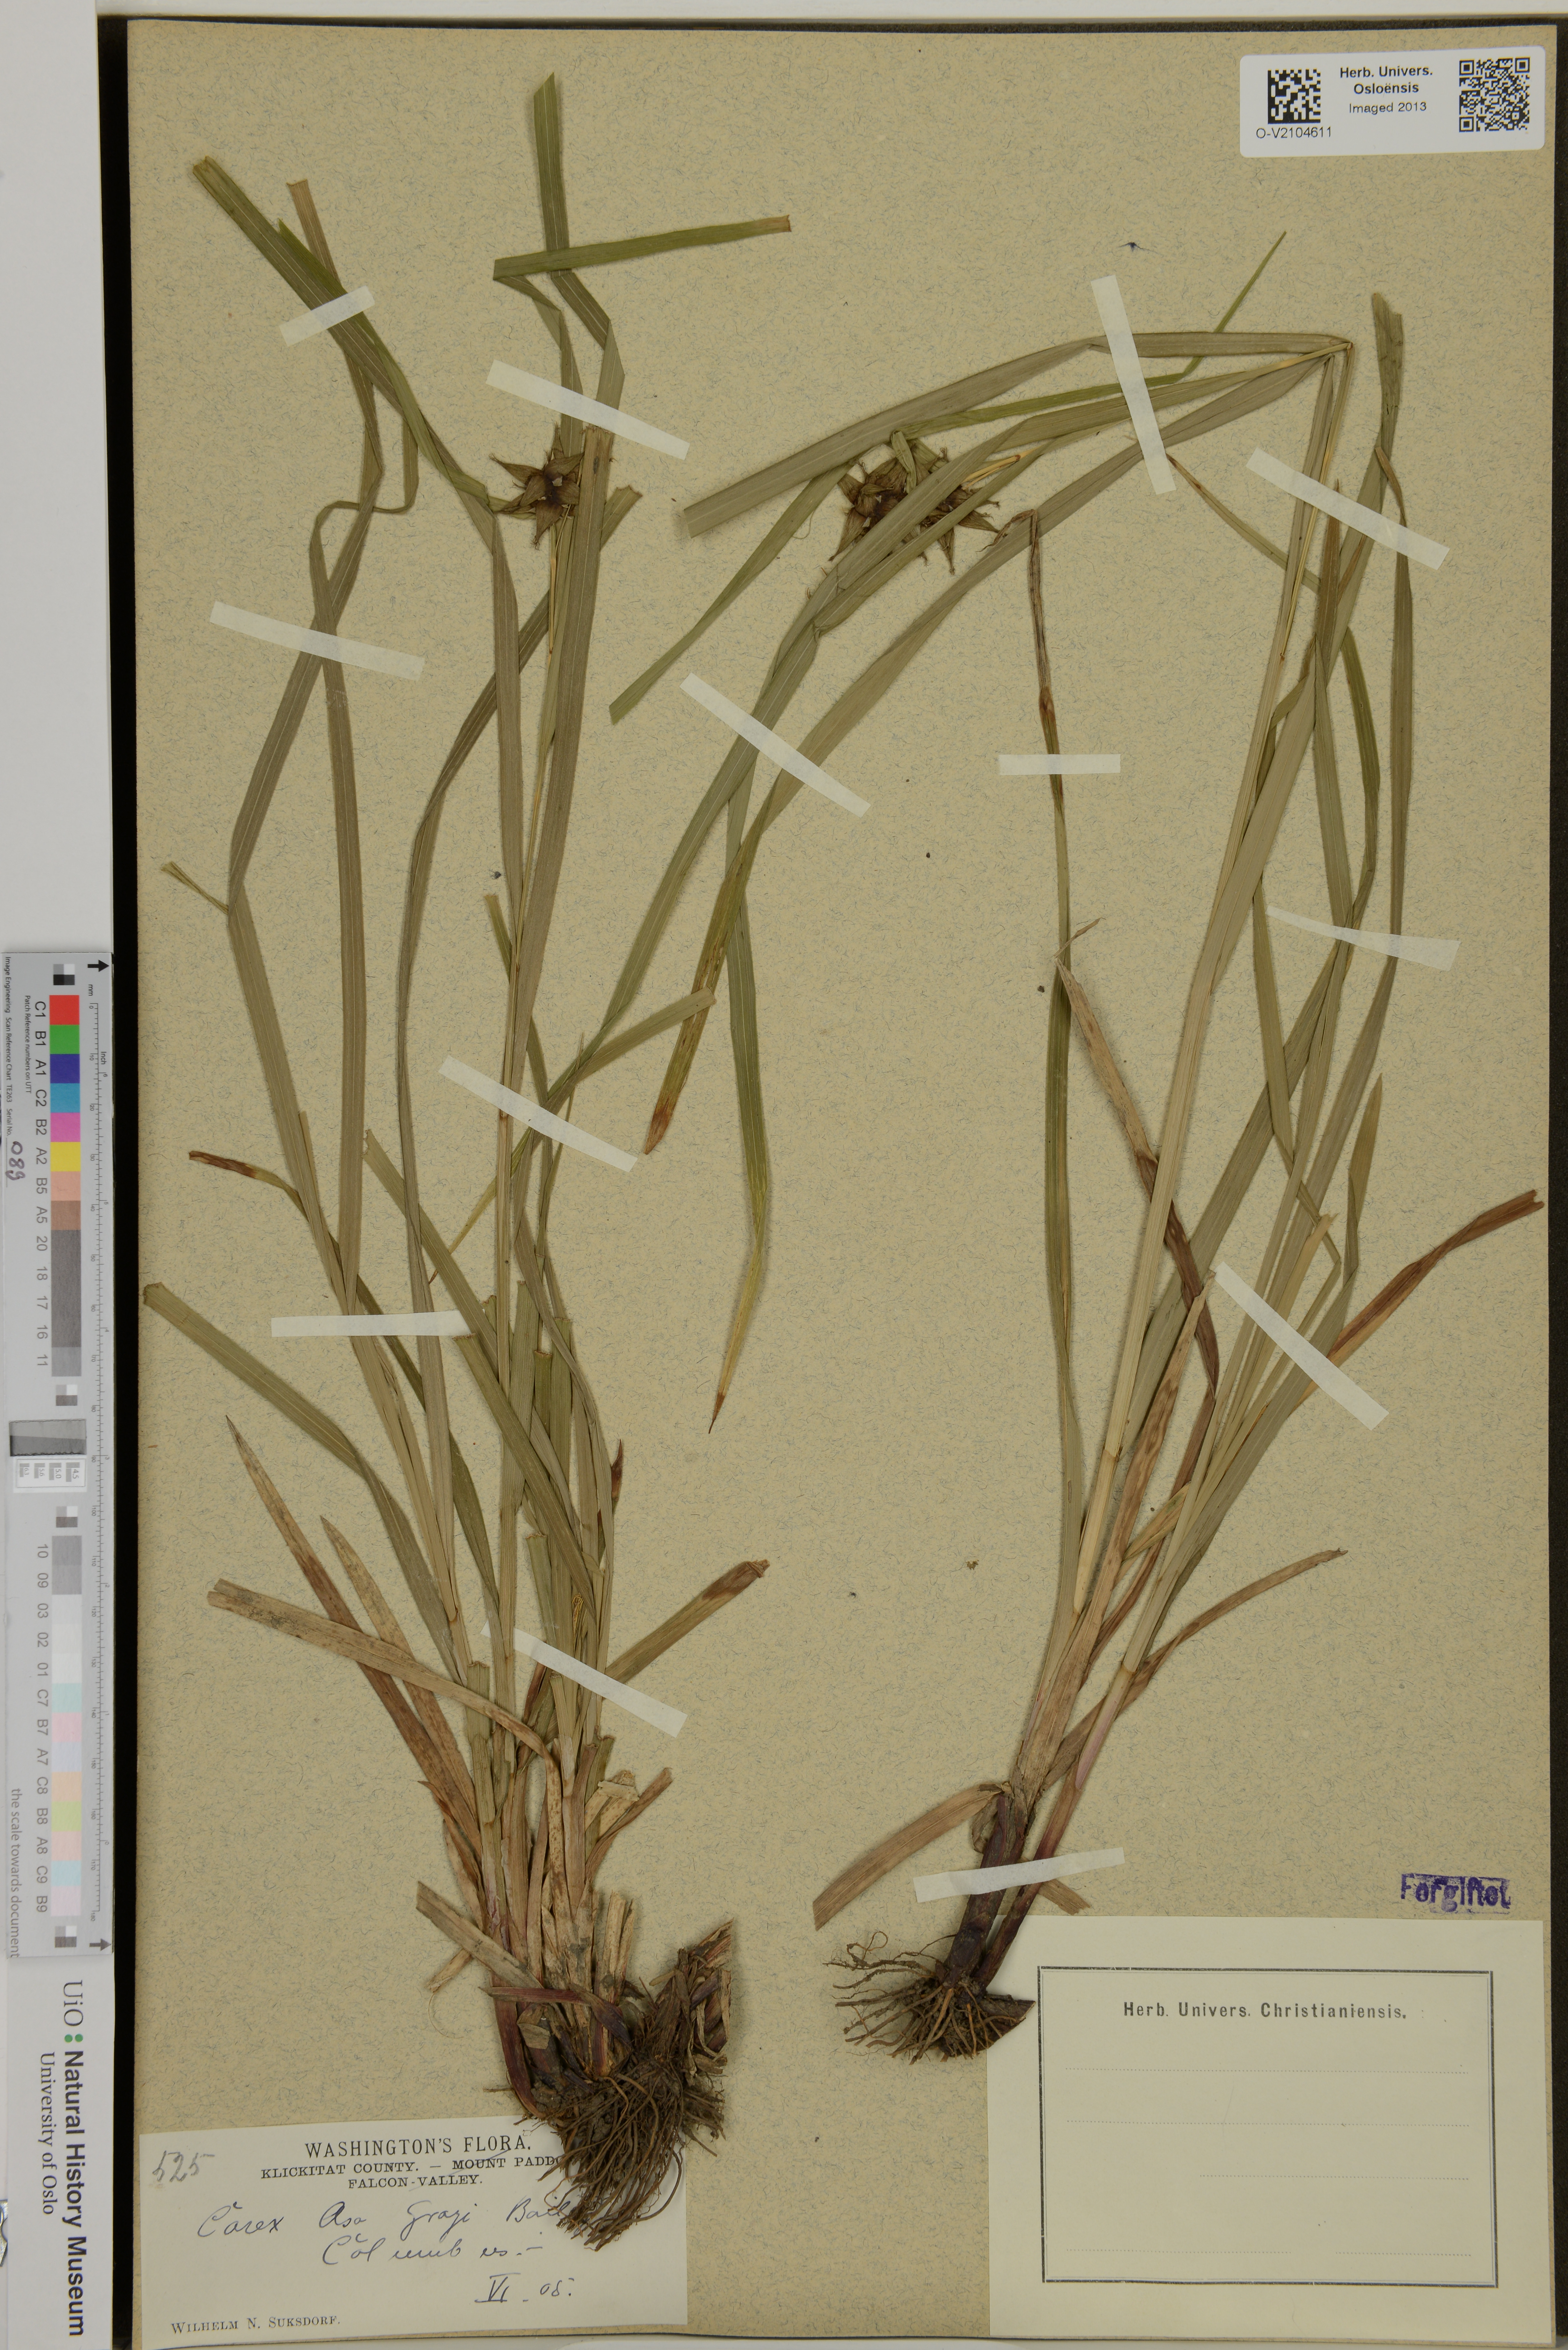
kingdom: Plantae
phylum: Tracheophyta
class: Liliopsida
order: Poales
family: Cyperaceae
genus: Carex
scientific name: Carex grayi
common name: Asa gray's sedge
